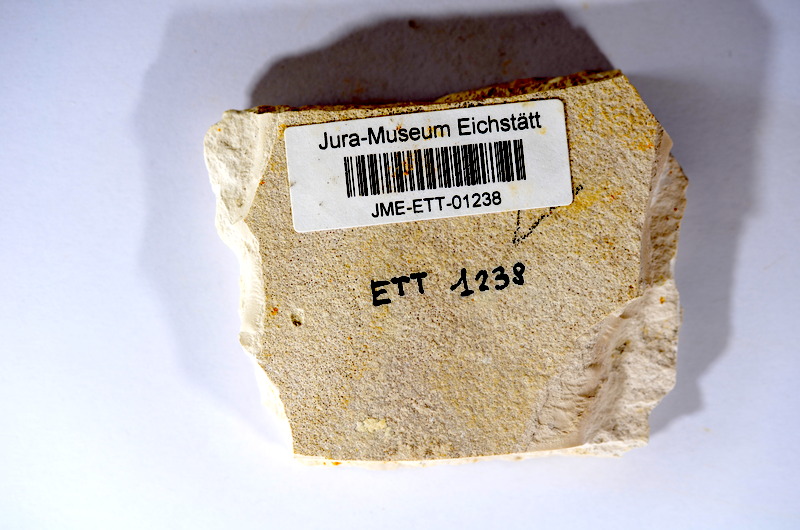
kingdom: Animalia
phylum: Chordata
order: Salmoniformes
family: Orthogonikleithridae
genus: Orthogonikleithrus
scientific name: Orthogonikleithrus hoelli
